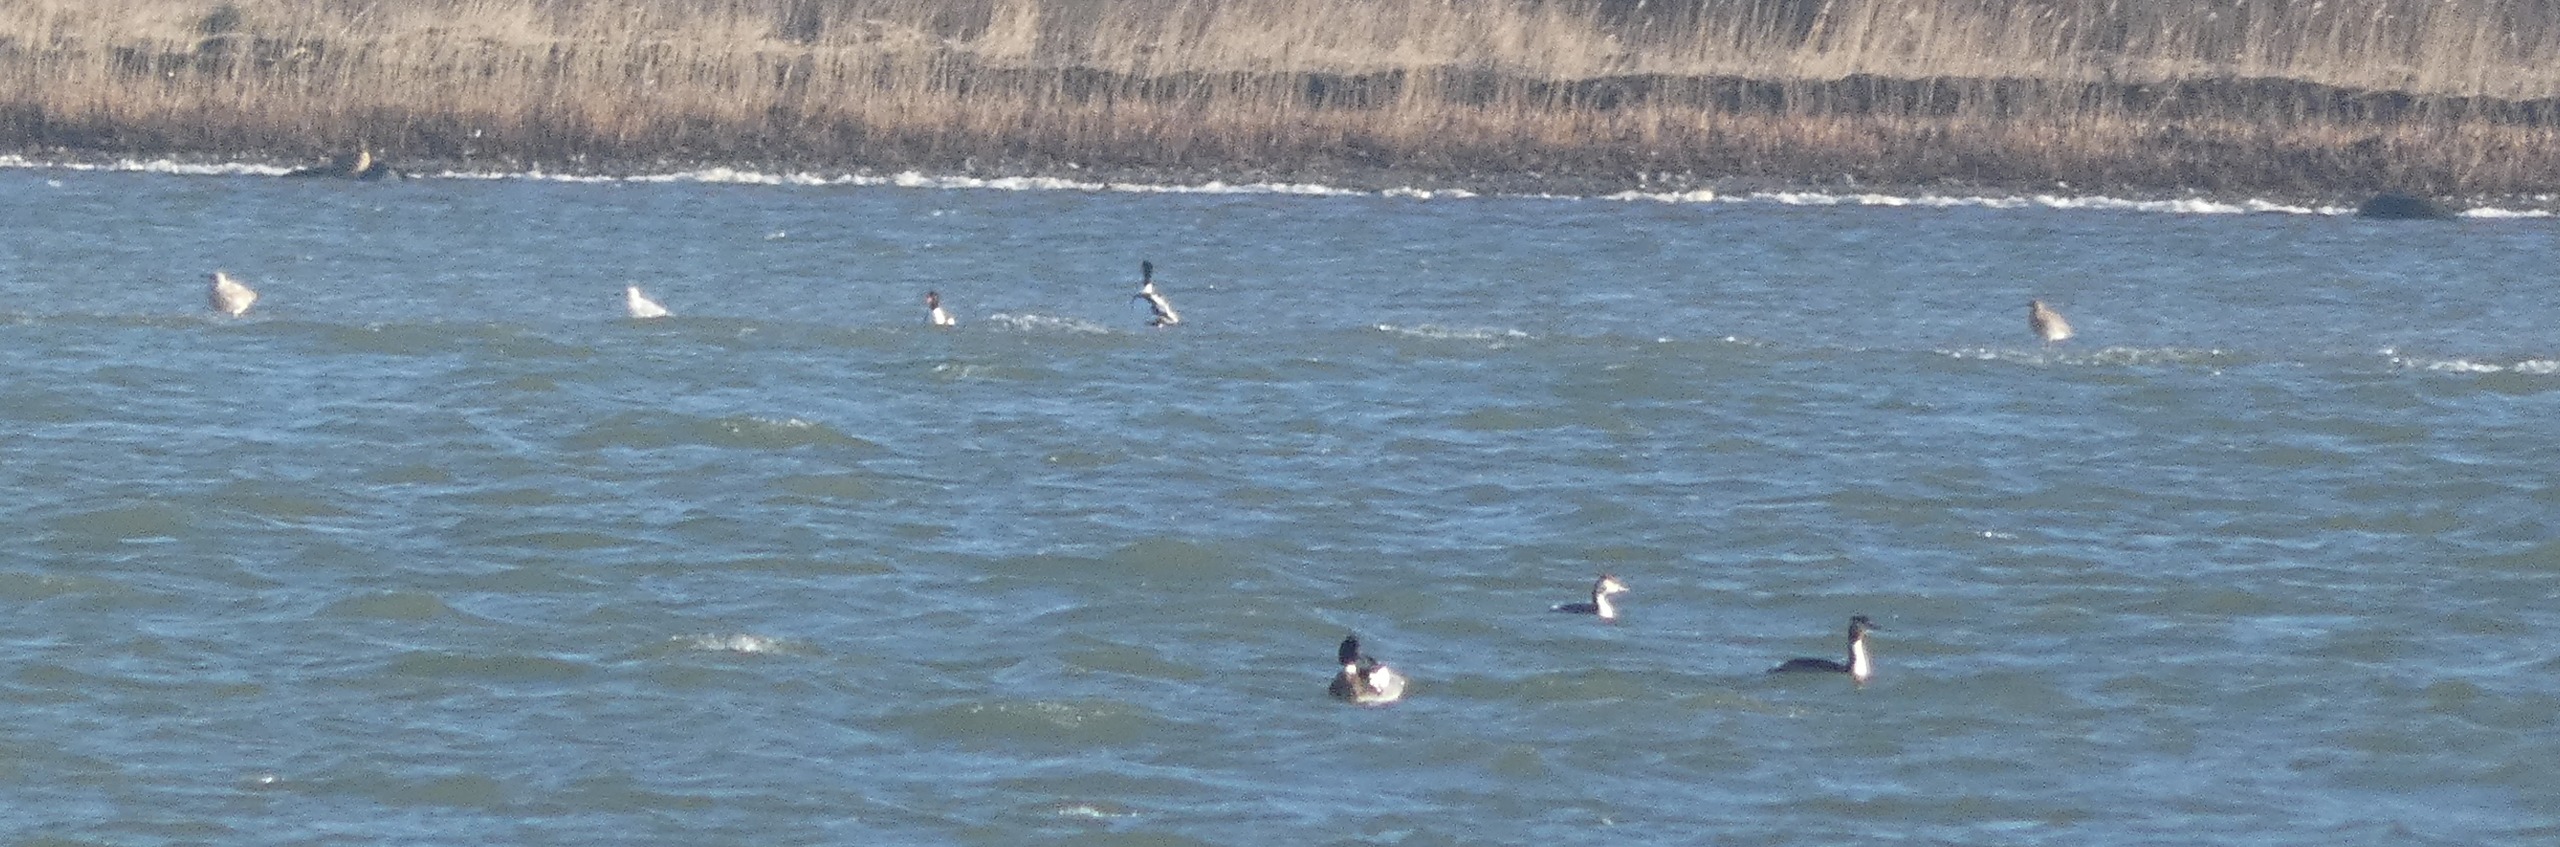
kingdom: Animalia
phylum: Chordata
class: Aves
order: Anseriformes
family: Anatidae
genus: Tadorna
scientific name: Tadorna tadorna
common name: Gravand
